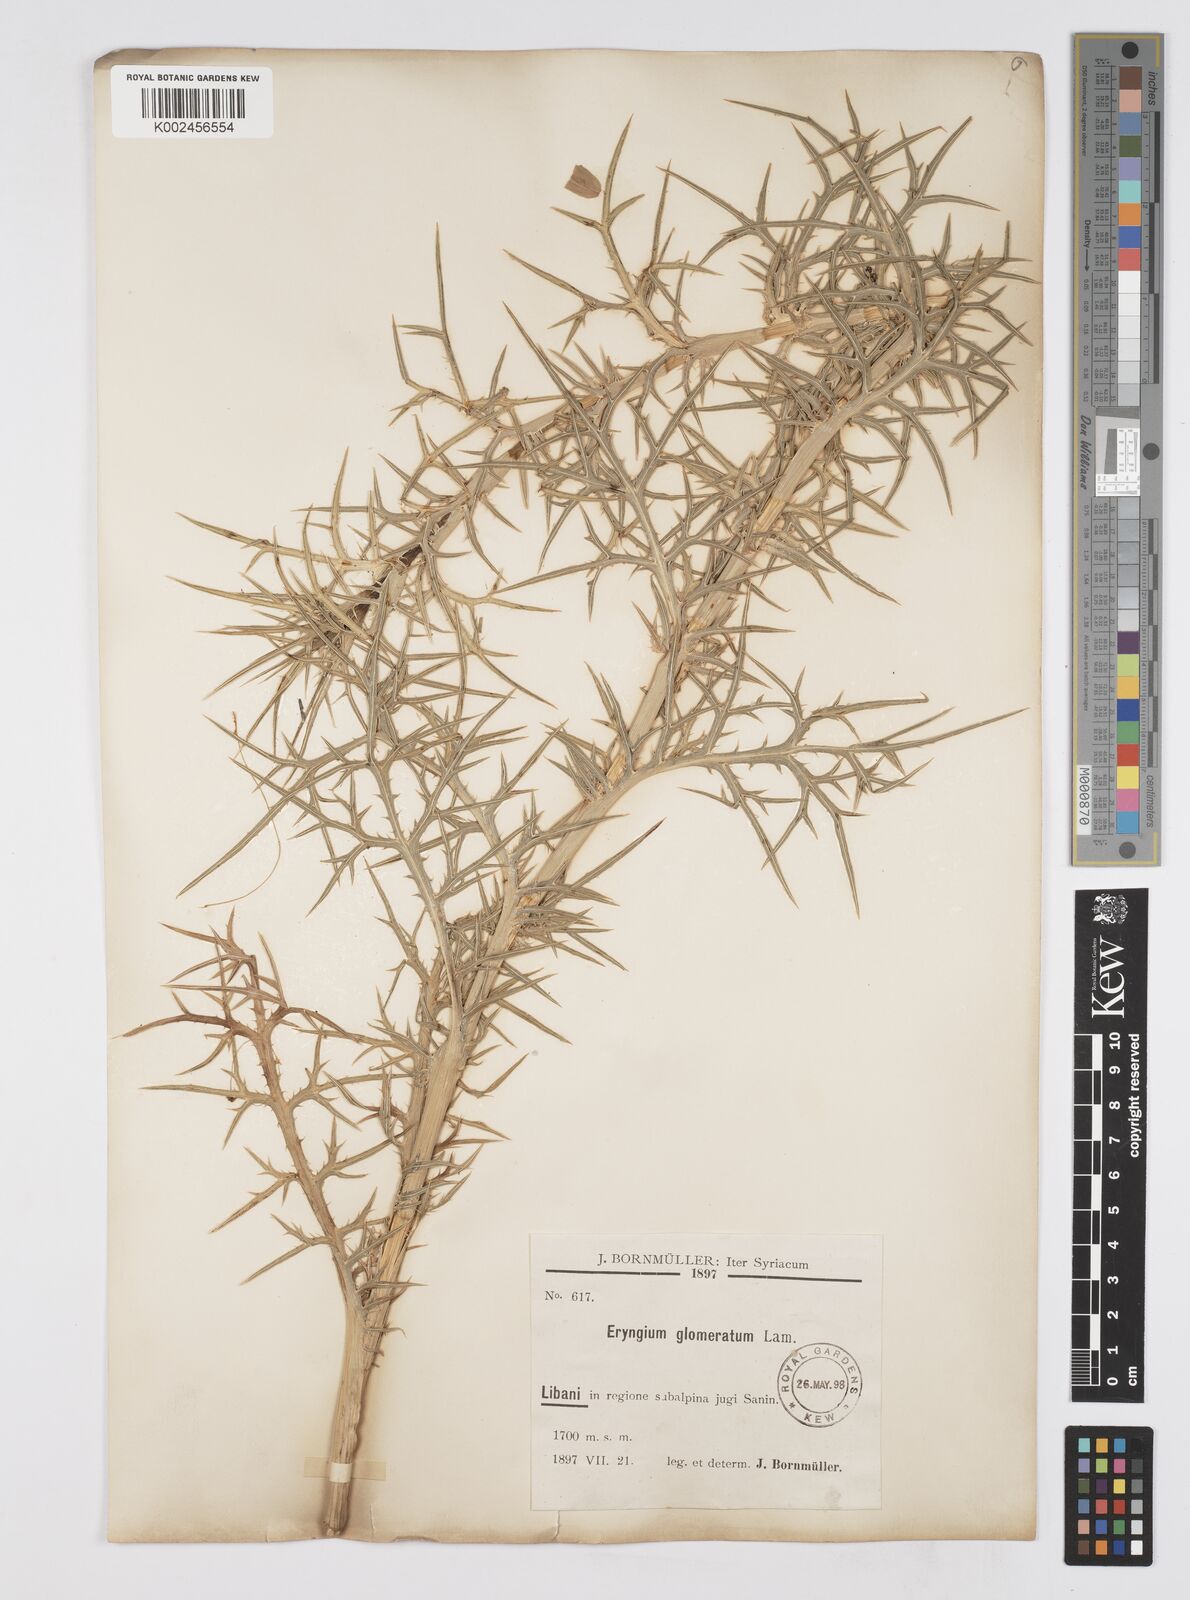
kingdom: Plantae
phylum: Tracheophyta
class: Magnoliopsida
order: Apiales
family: Apiaceae
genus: Eryngium
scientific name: Eryngium glomeratum
